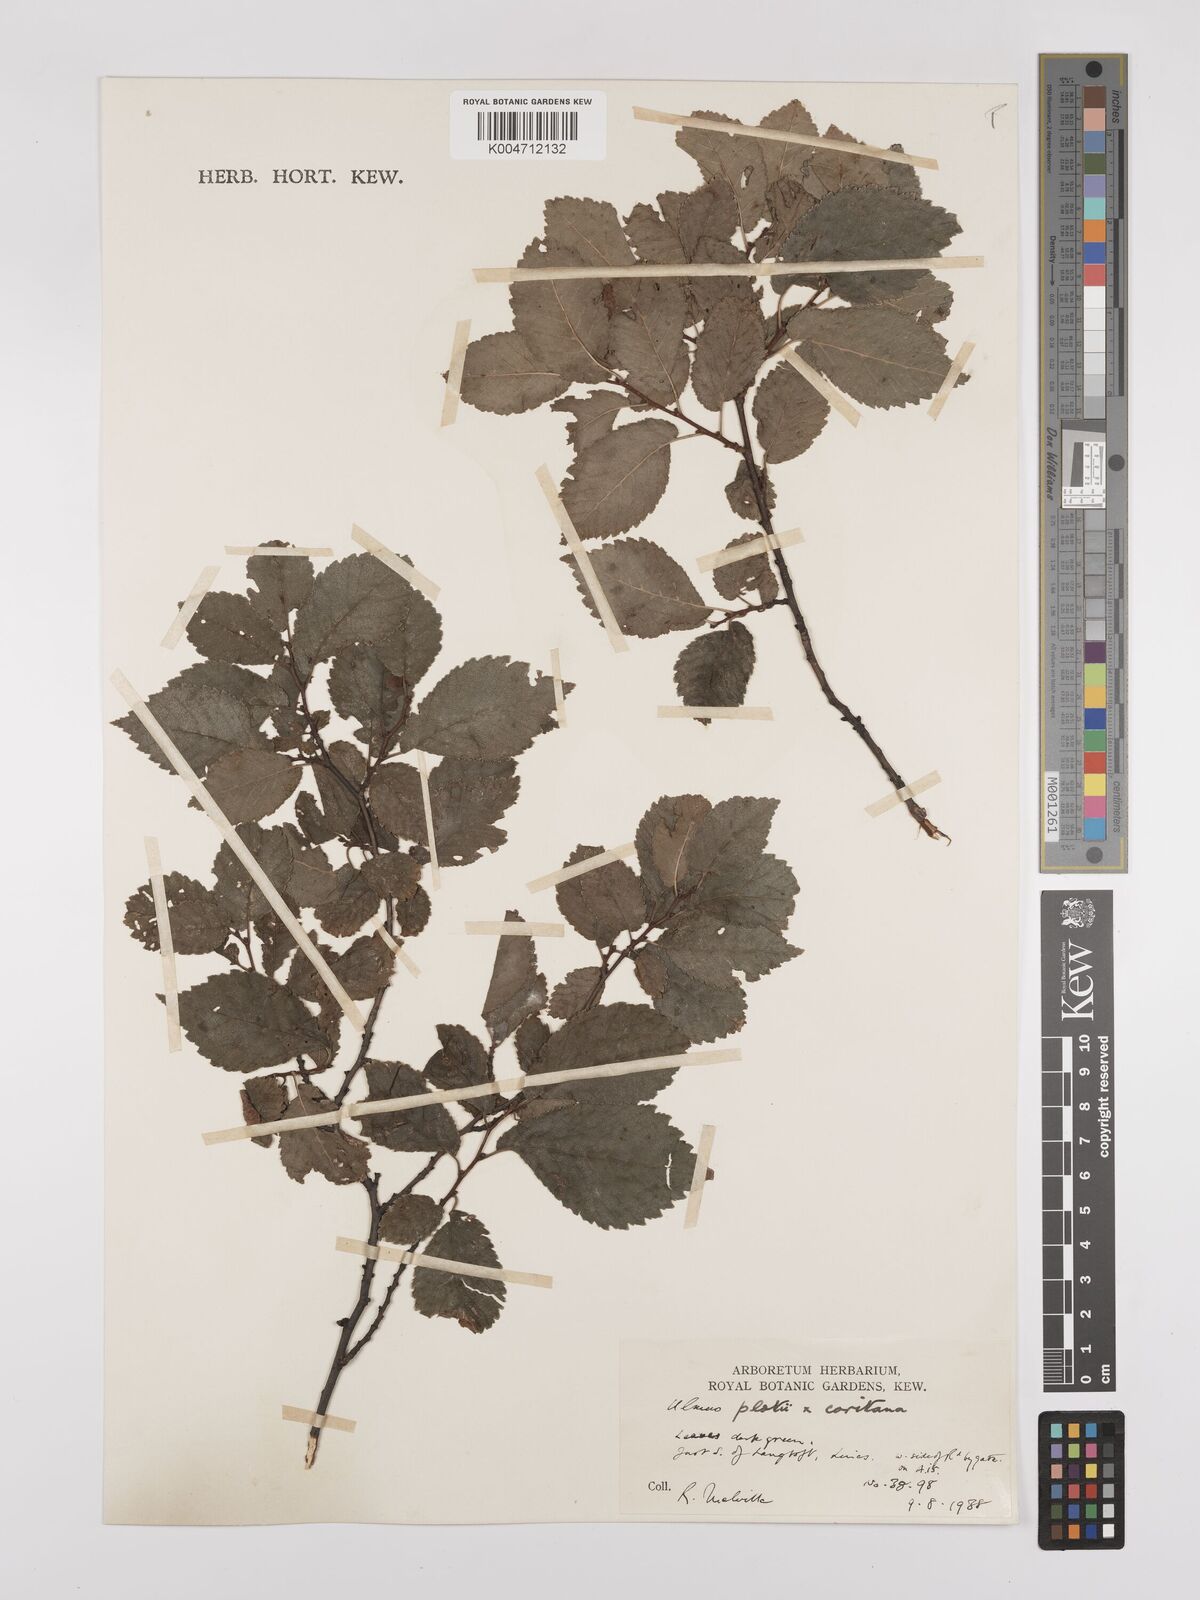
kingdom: Plantae
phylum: Tracheophyta
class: Magnoliopsida
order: Rosales
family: Ulmaceae
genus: Ulmus
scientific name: Ulmus minor
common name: Small-leaved elm
